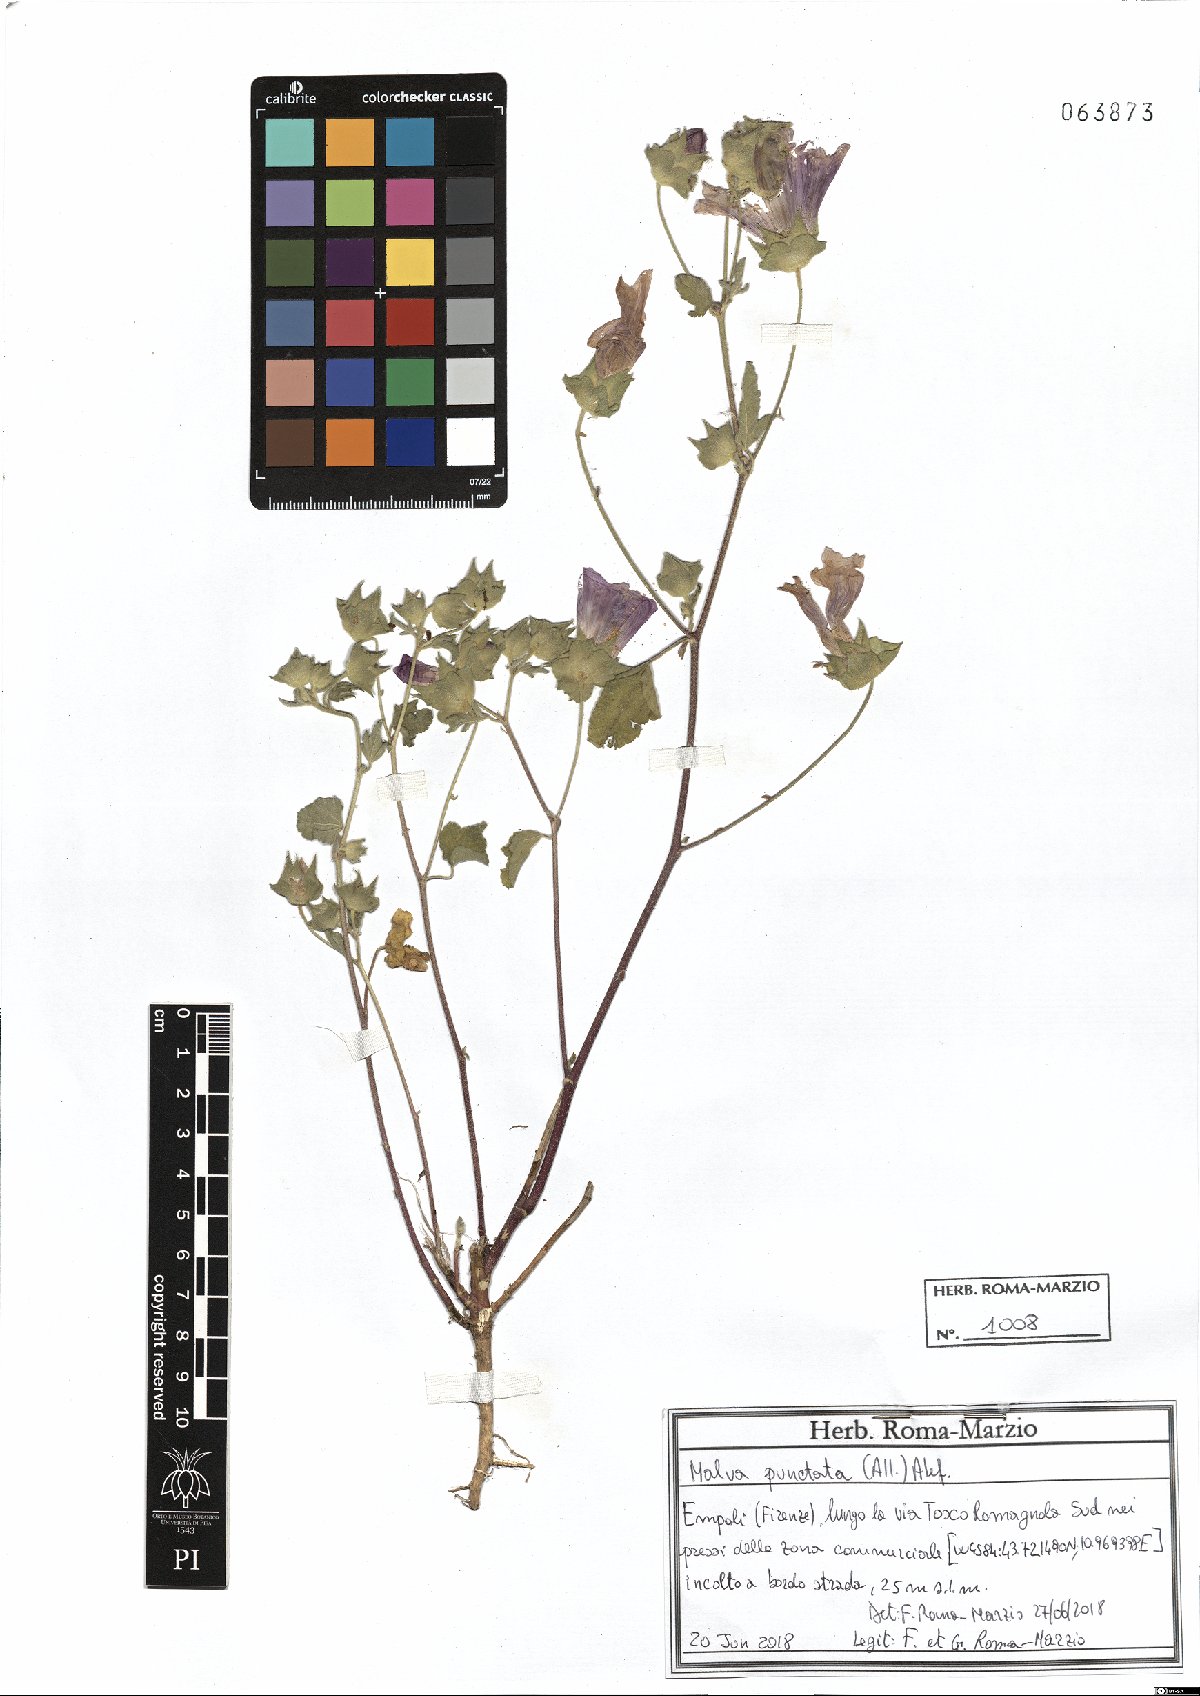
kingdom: Plantae
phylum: Tracheophyta
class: Magnoliopsida
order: Malvales
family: Malvaceae
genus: Malva
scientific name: Malva punctata
